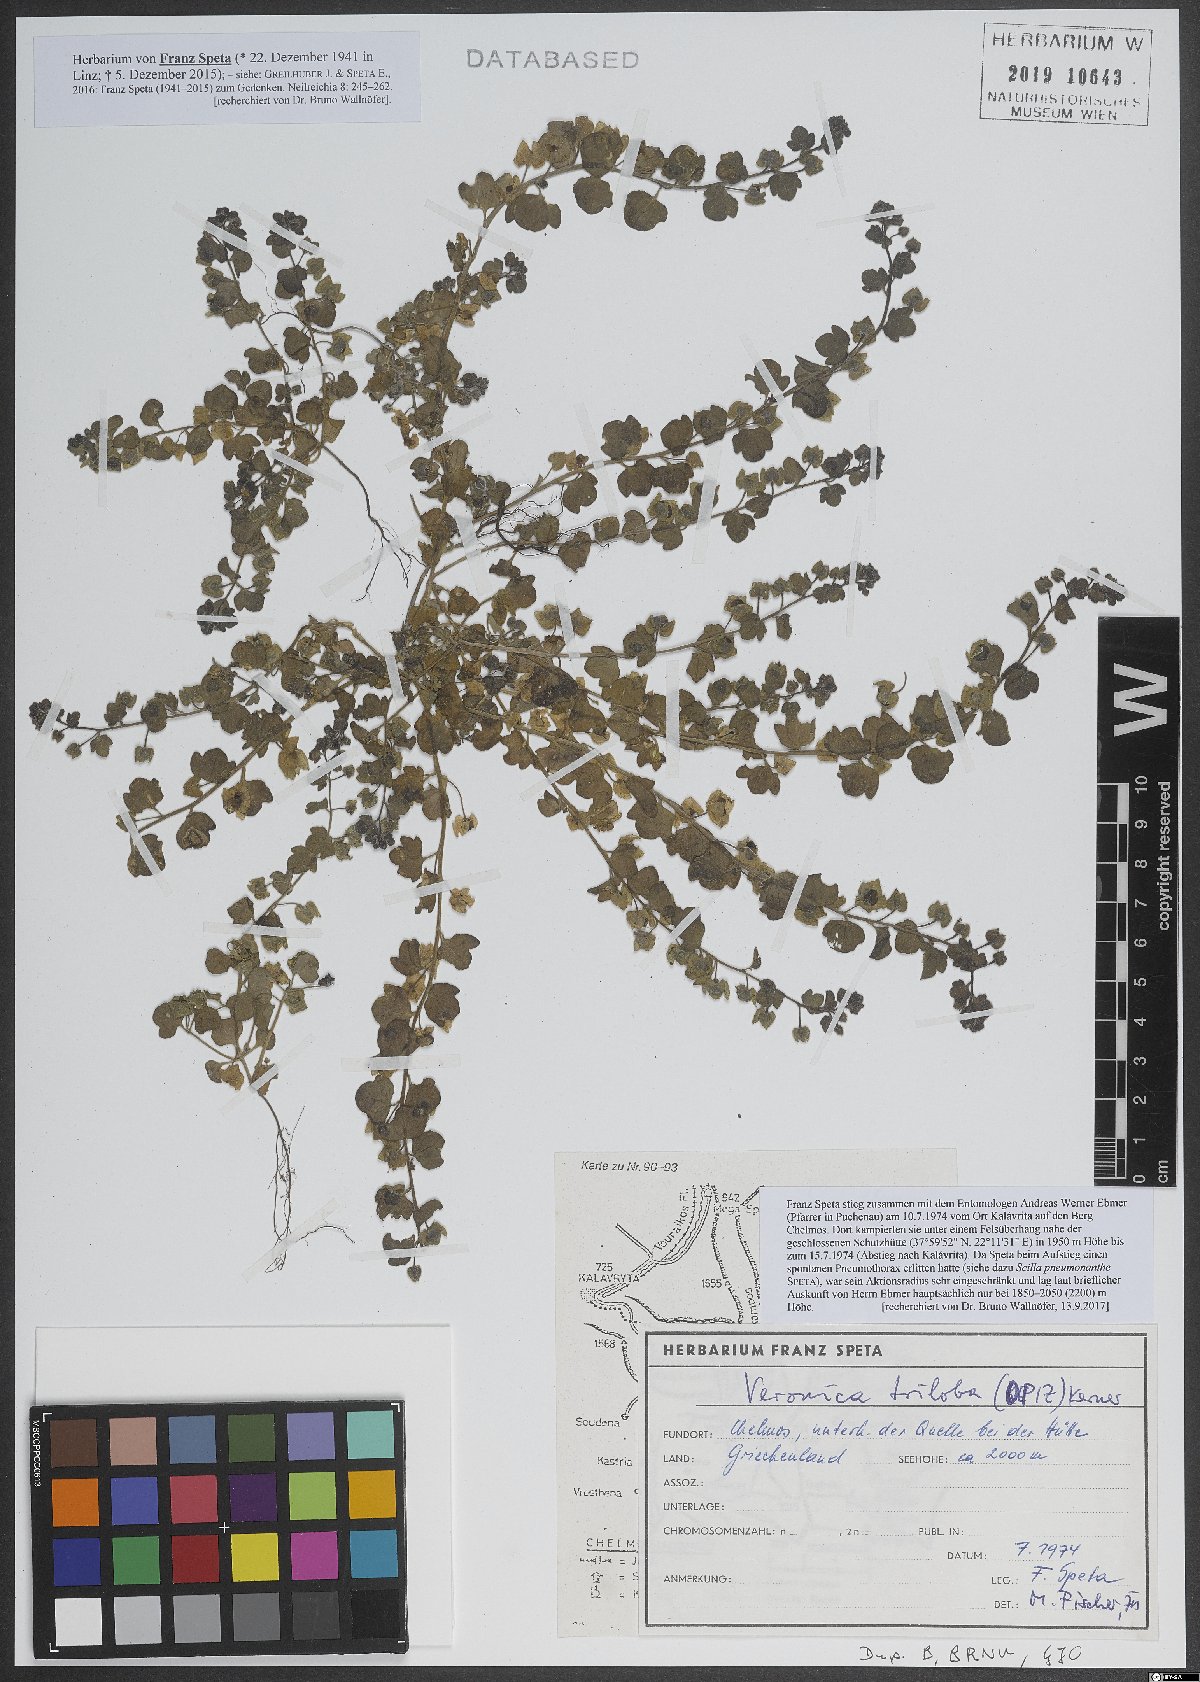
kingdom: Plantae
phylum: Tracheophyta
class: Magnoliopsida
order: Lamiales
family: Plantaginaceae
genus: Veronica
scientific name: Veronica triloba
